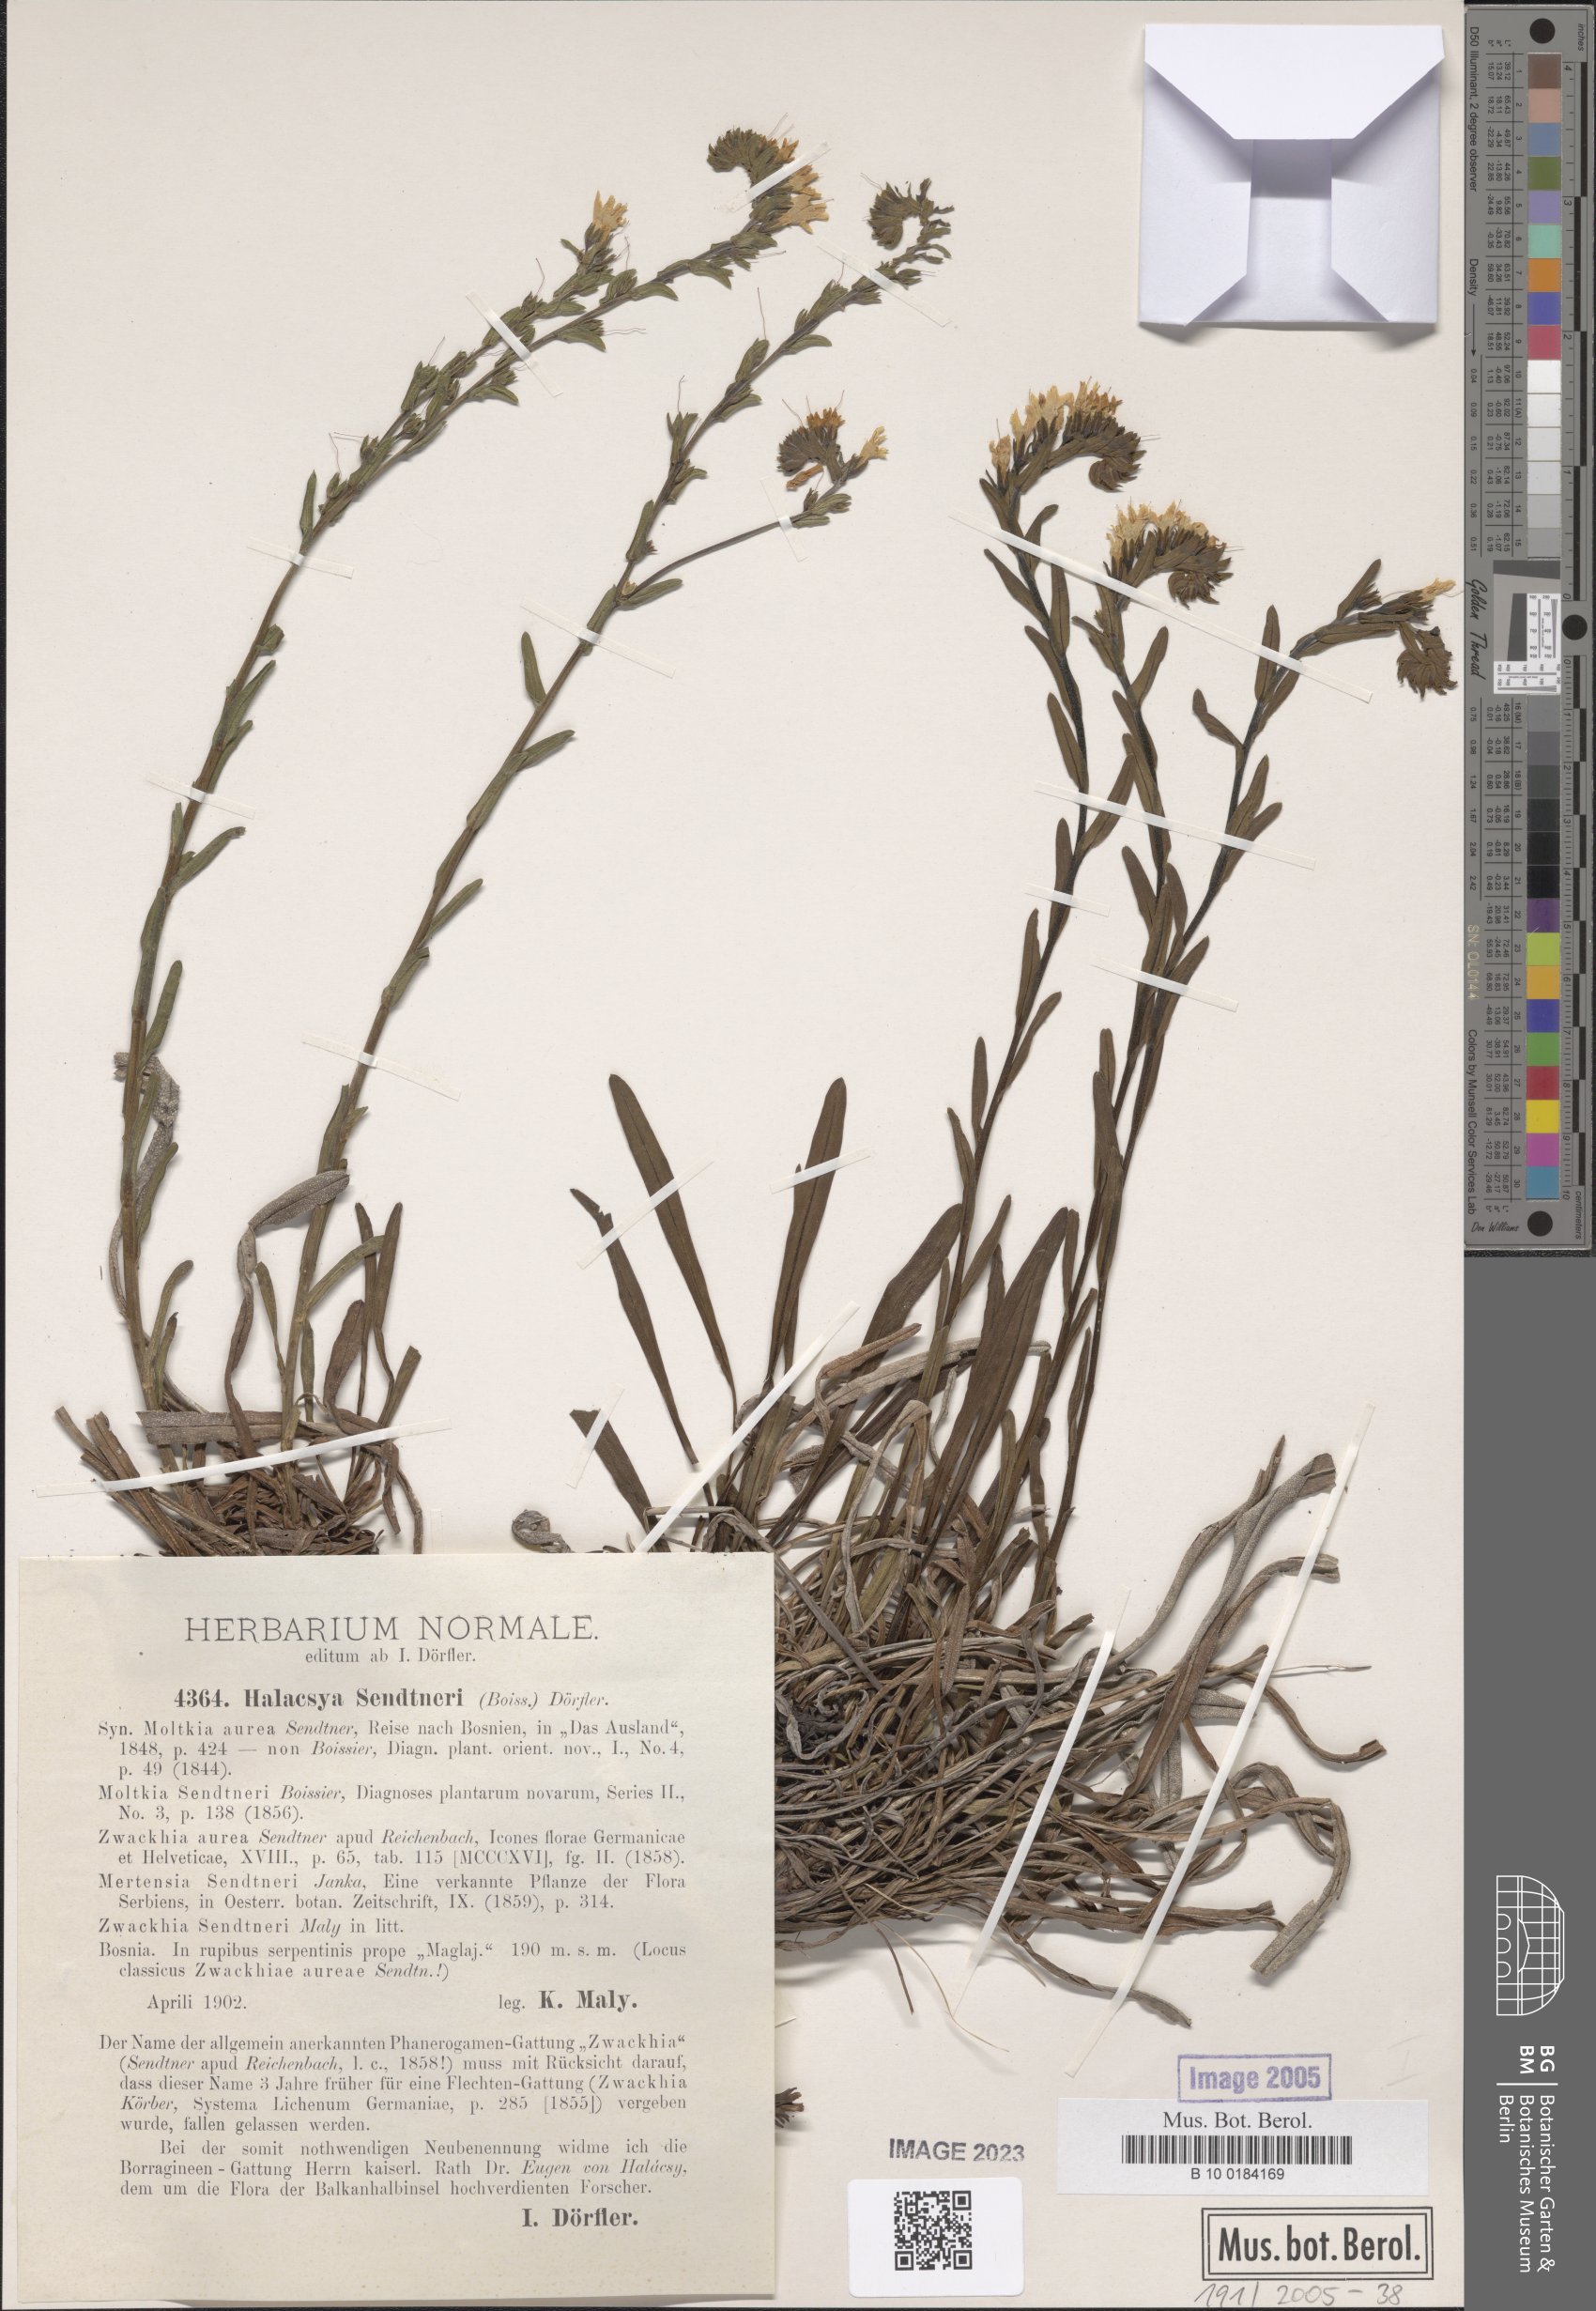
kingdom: Plantae
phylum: Tracheophyta
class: Magnoliopsida
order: Boraginales
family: Boraginaceae
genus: Halacsya
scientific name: Halacsya sendtneri
